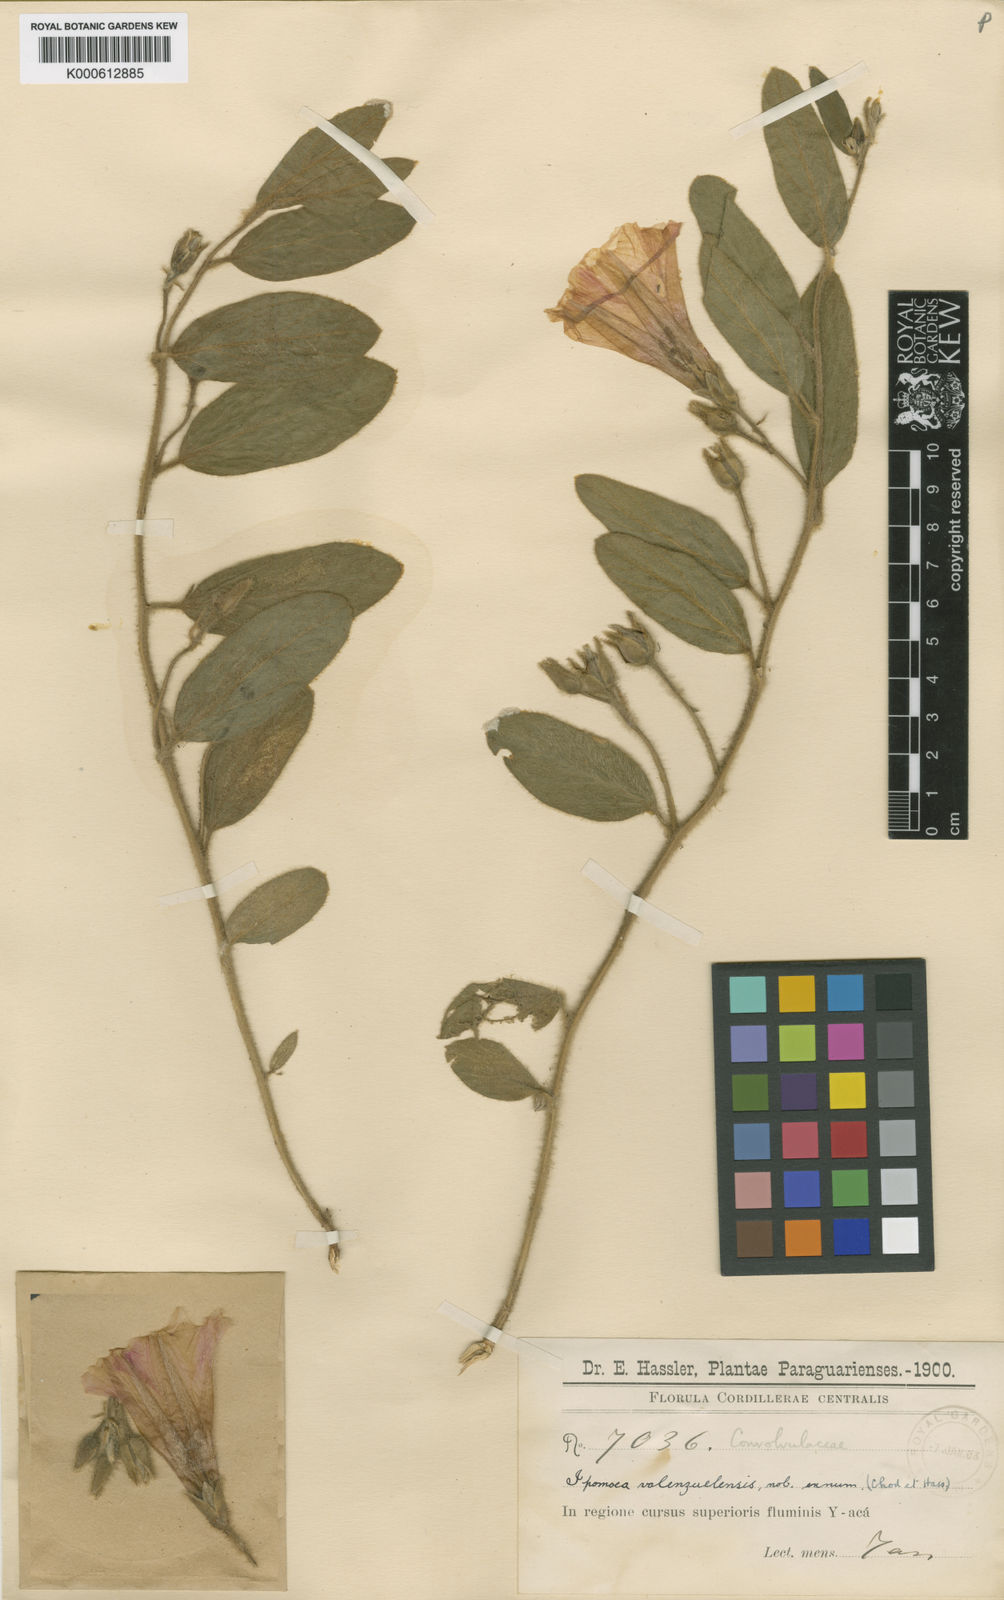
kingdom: Plantae
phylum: Tracheophyta
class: Magnoliopsida
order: Solanales
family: Convolvulaceae
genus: Ipomoea
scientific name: Ipomoea valenzuelensis
